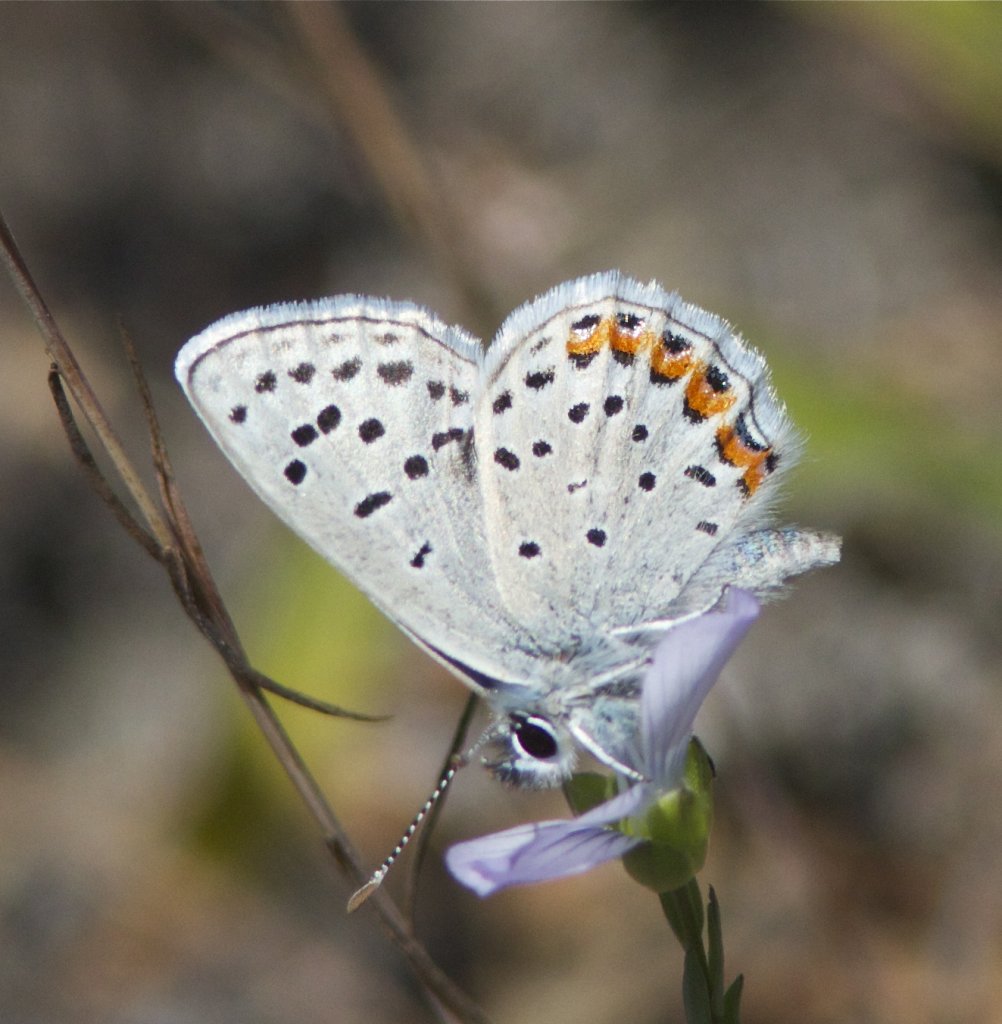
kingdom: Animalia
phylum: Arthropoda
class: Insecta
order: Lepidoptera
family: Lycaenidae
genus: Plebejus
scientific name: Plebejus lupini
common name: Lupine Blue
